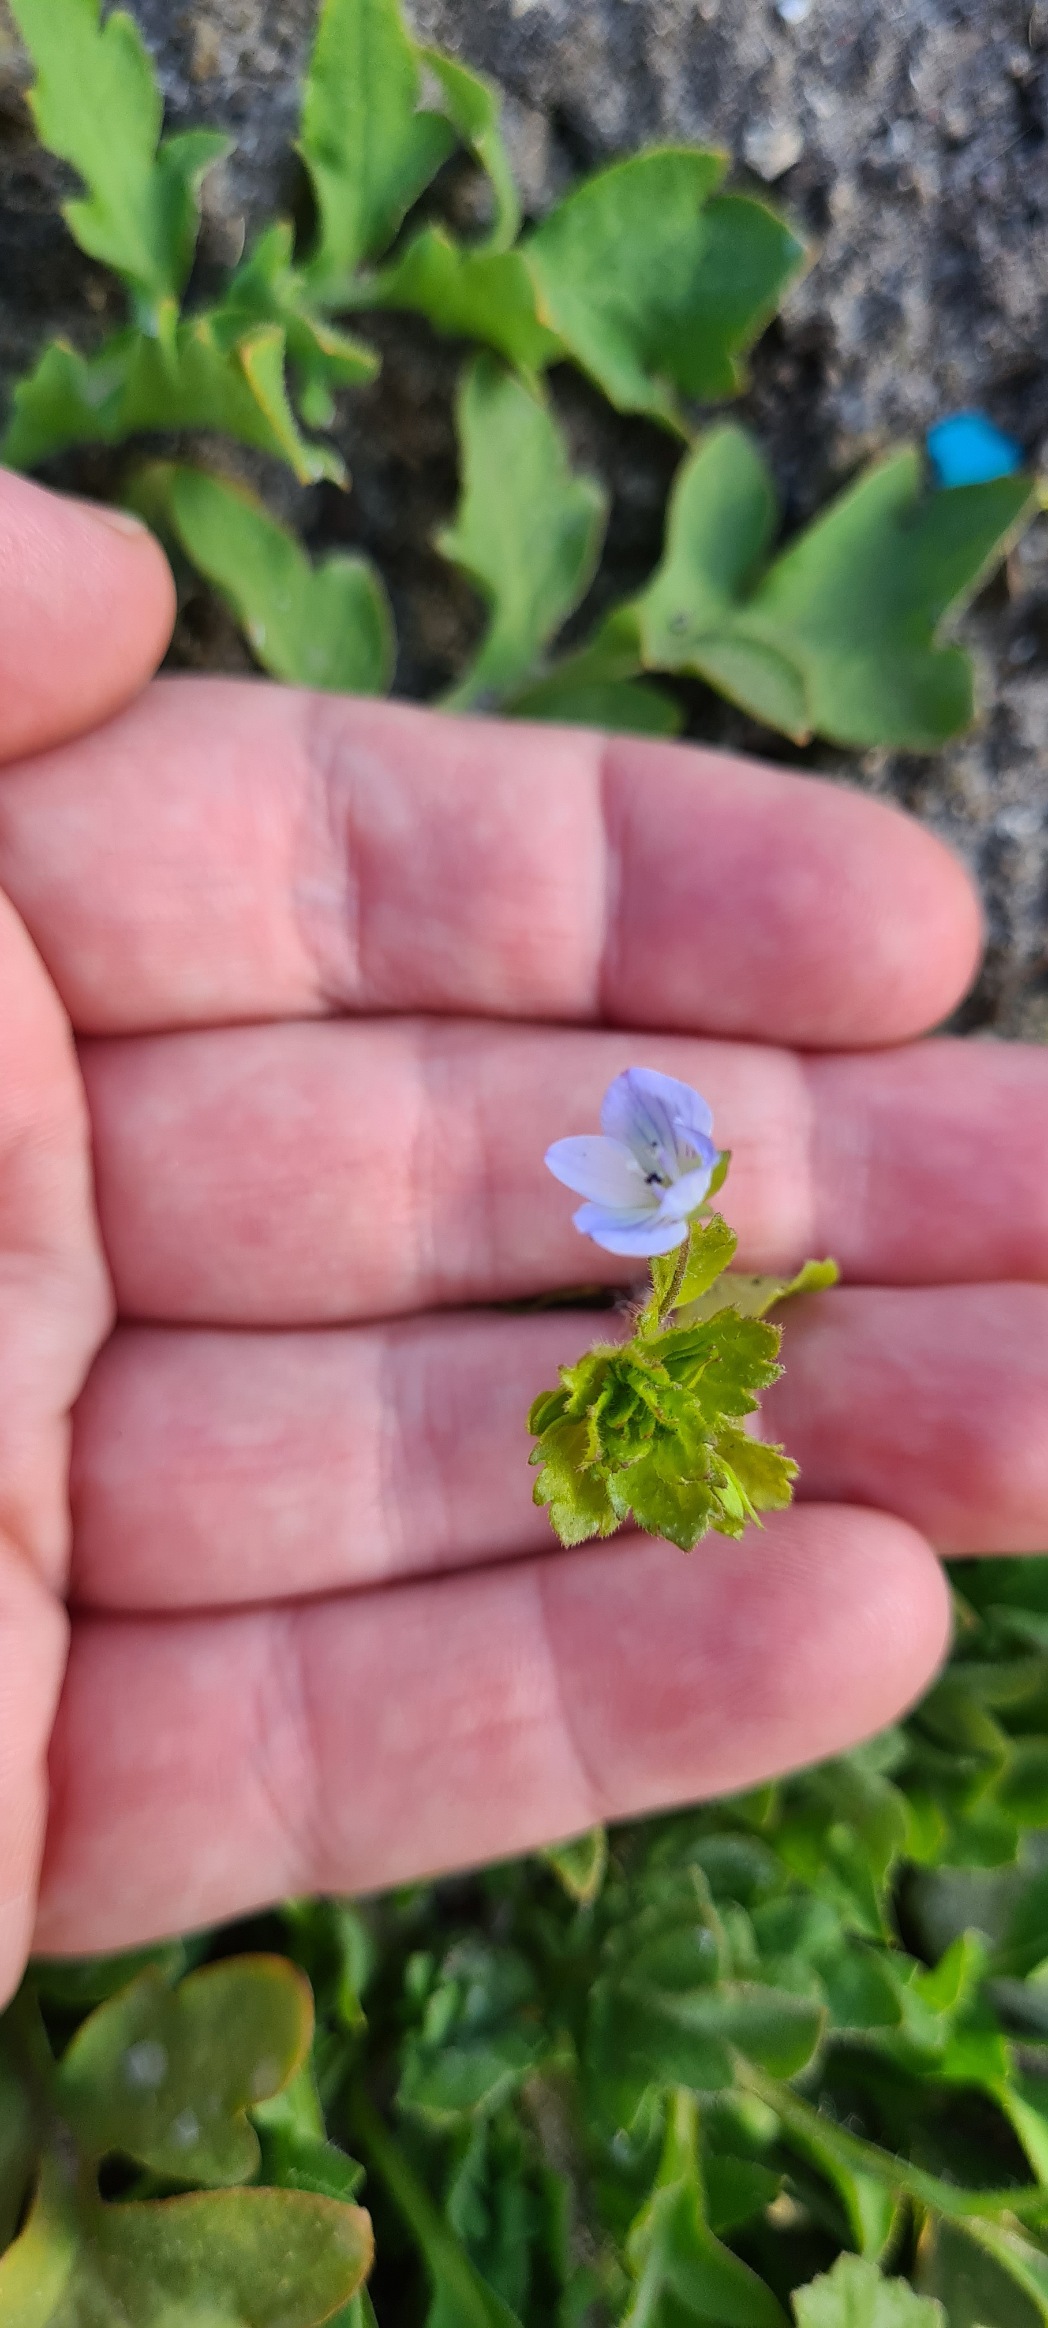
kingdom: Plantae
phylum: Tracheophyta
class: Magnoliopsida
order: Lamiales
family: Plantaginaceae
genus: Veronica
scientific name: Veronica persica
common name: Storkronet ærenpris
